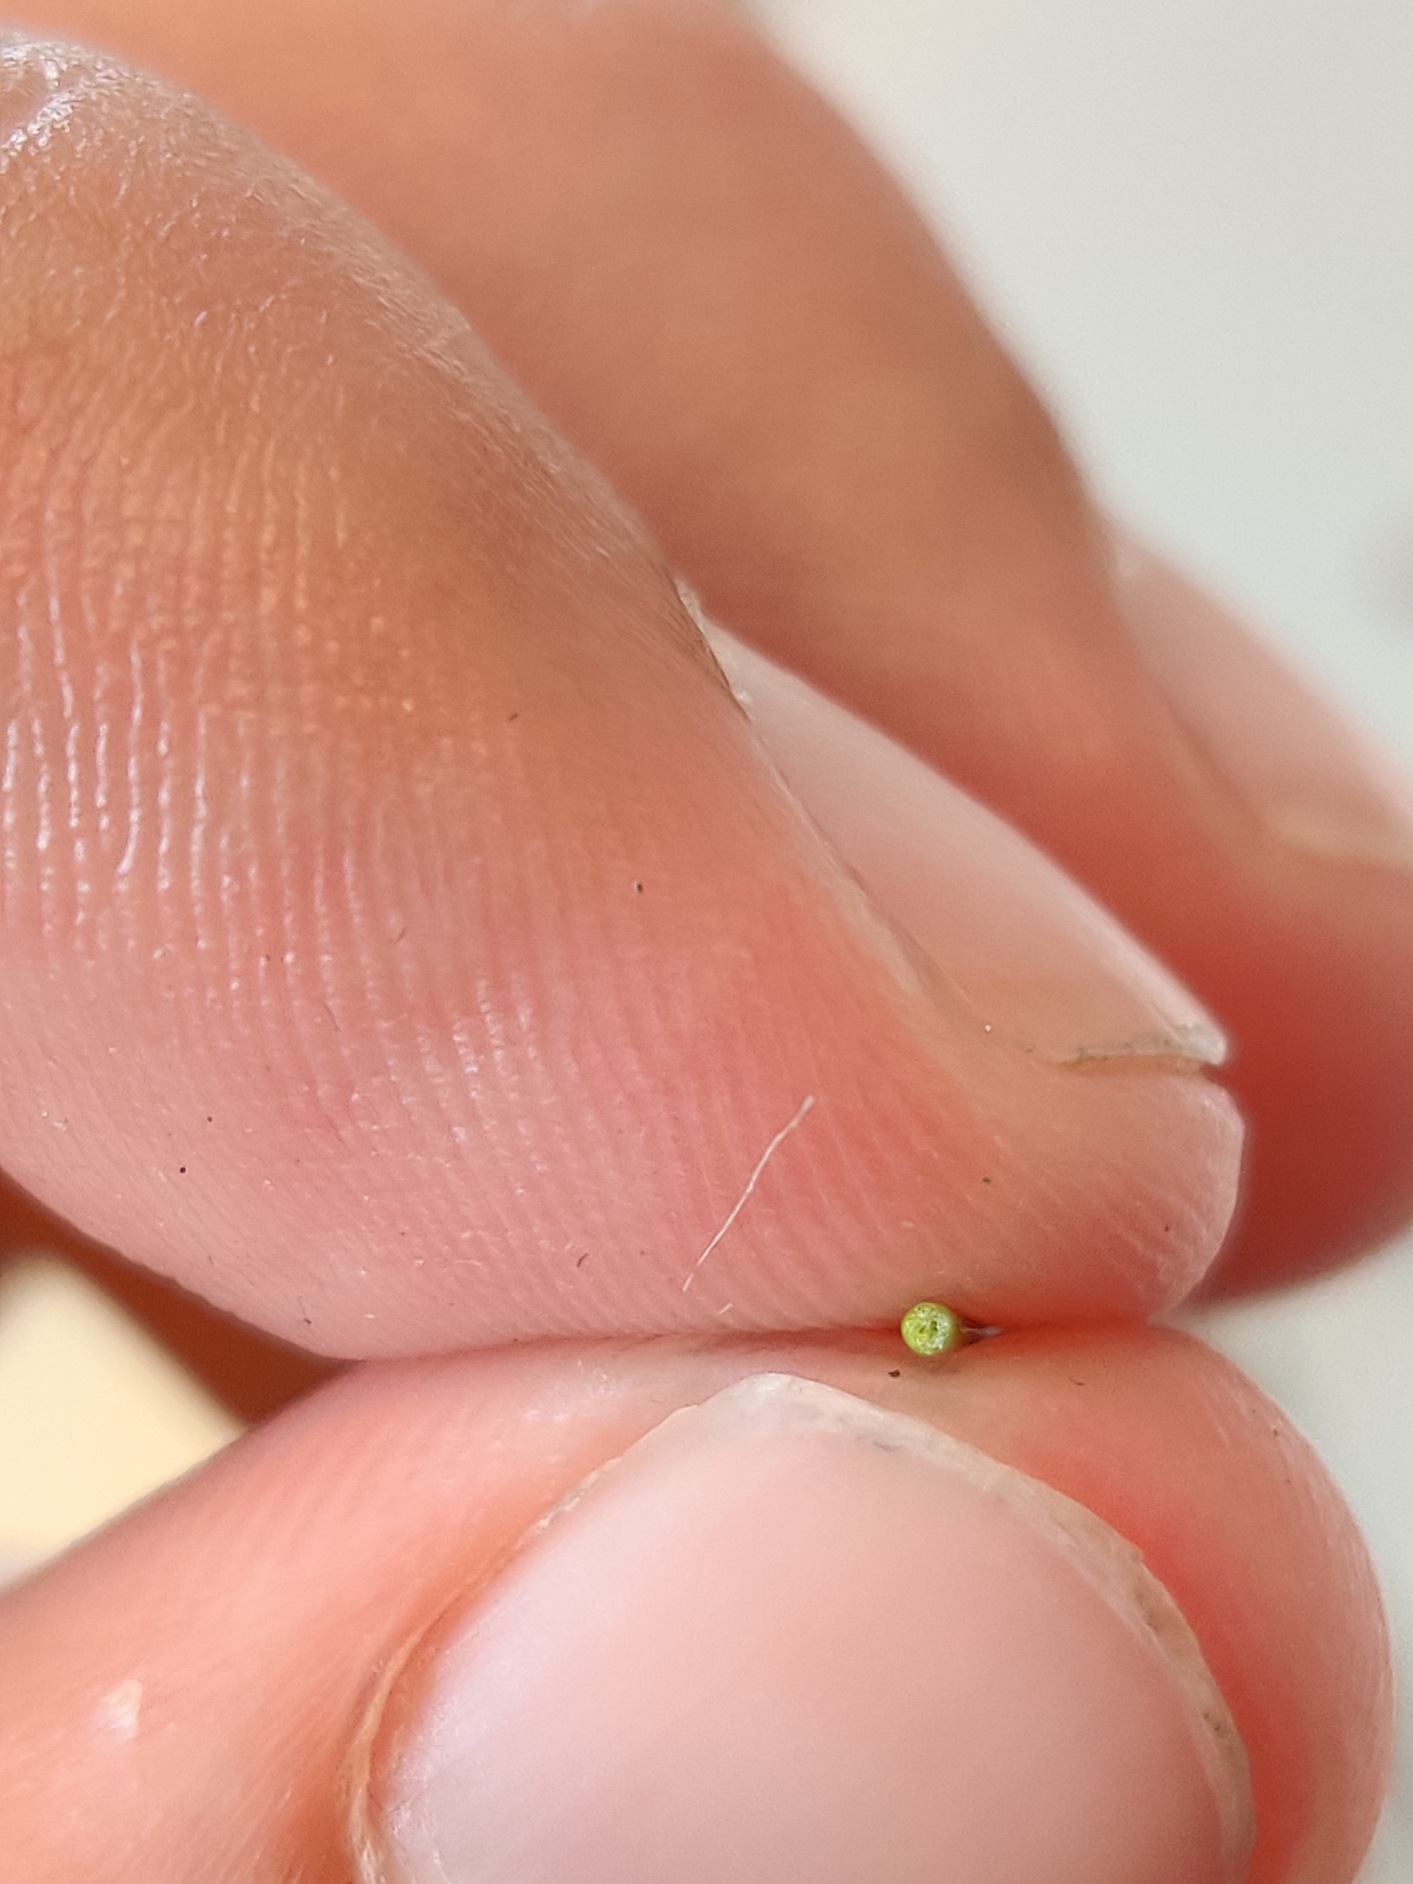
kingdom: Plantae
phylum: Tracheophyta
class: Liliopsida
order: Poales
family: Juncaceae
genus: Juncus
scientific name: Juncus gerardi
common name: Harril
